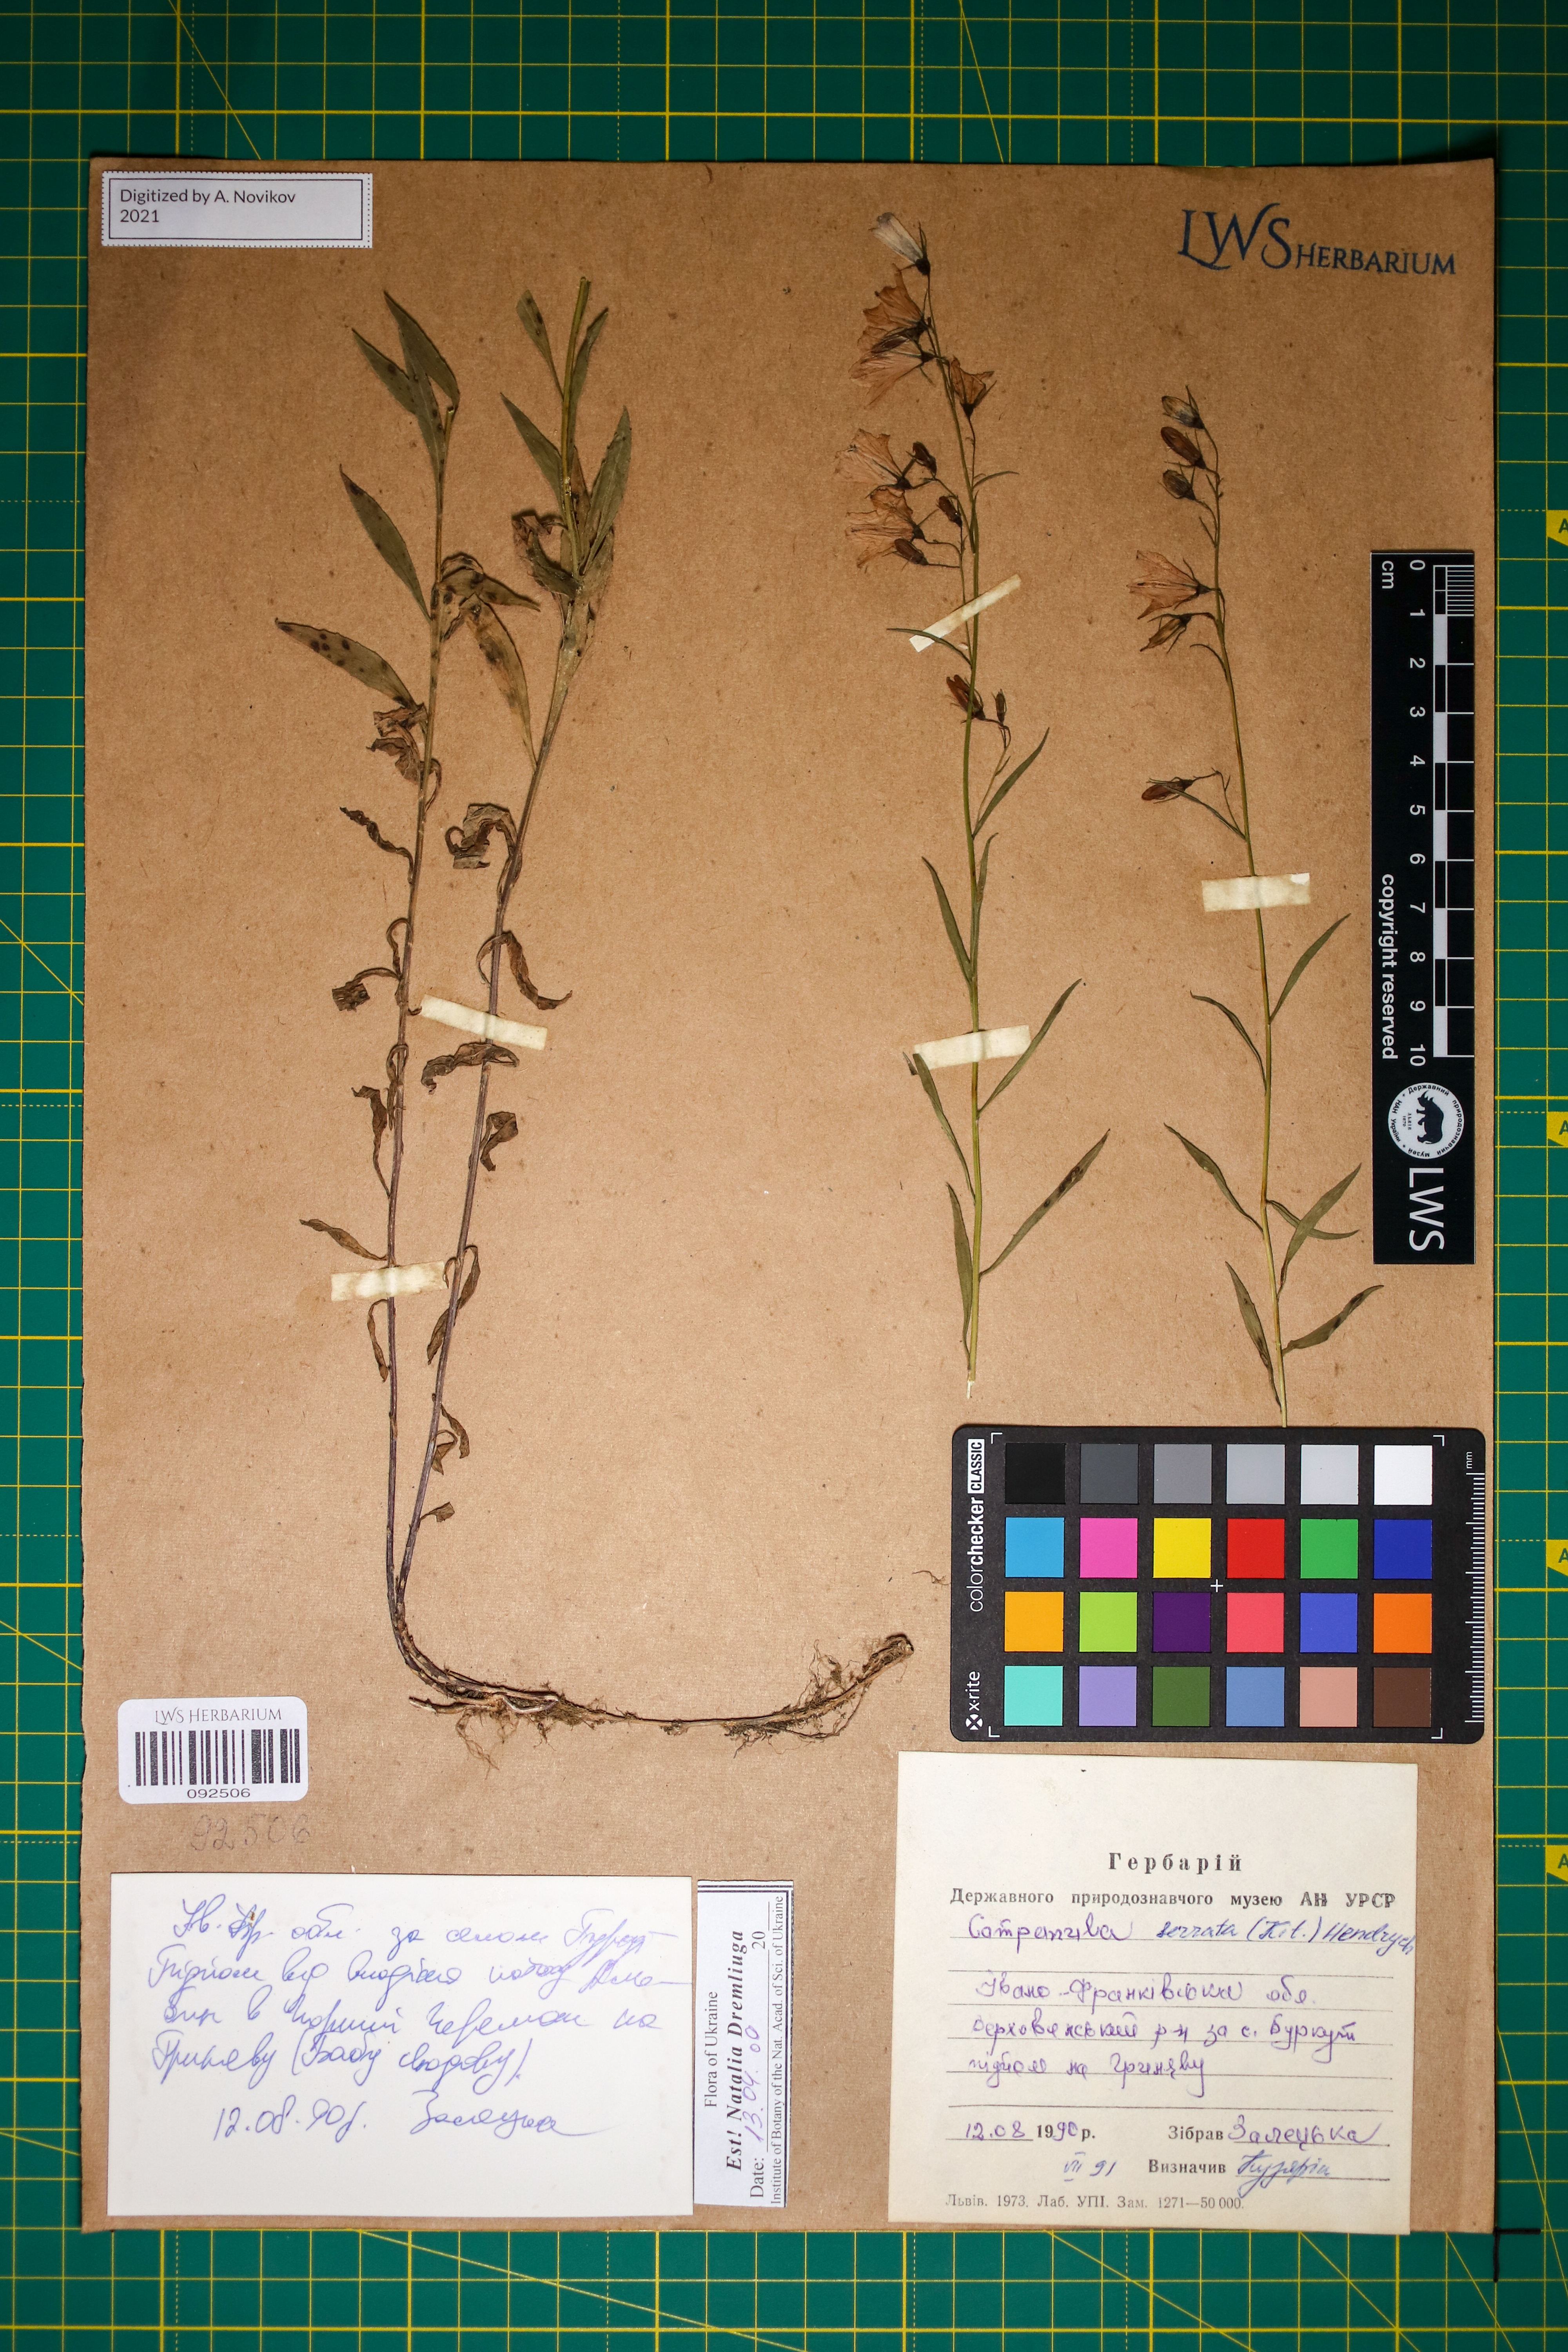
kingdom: Plantae
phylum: Tracheophyta
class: Magnoliopsida
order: Asterales
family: Campanulaceae
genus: Campanula
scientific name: Campanula serrata
